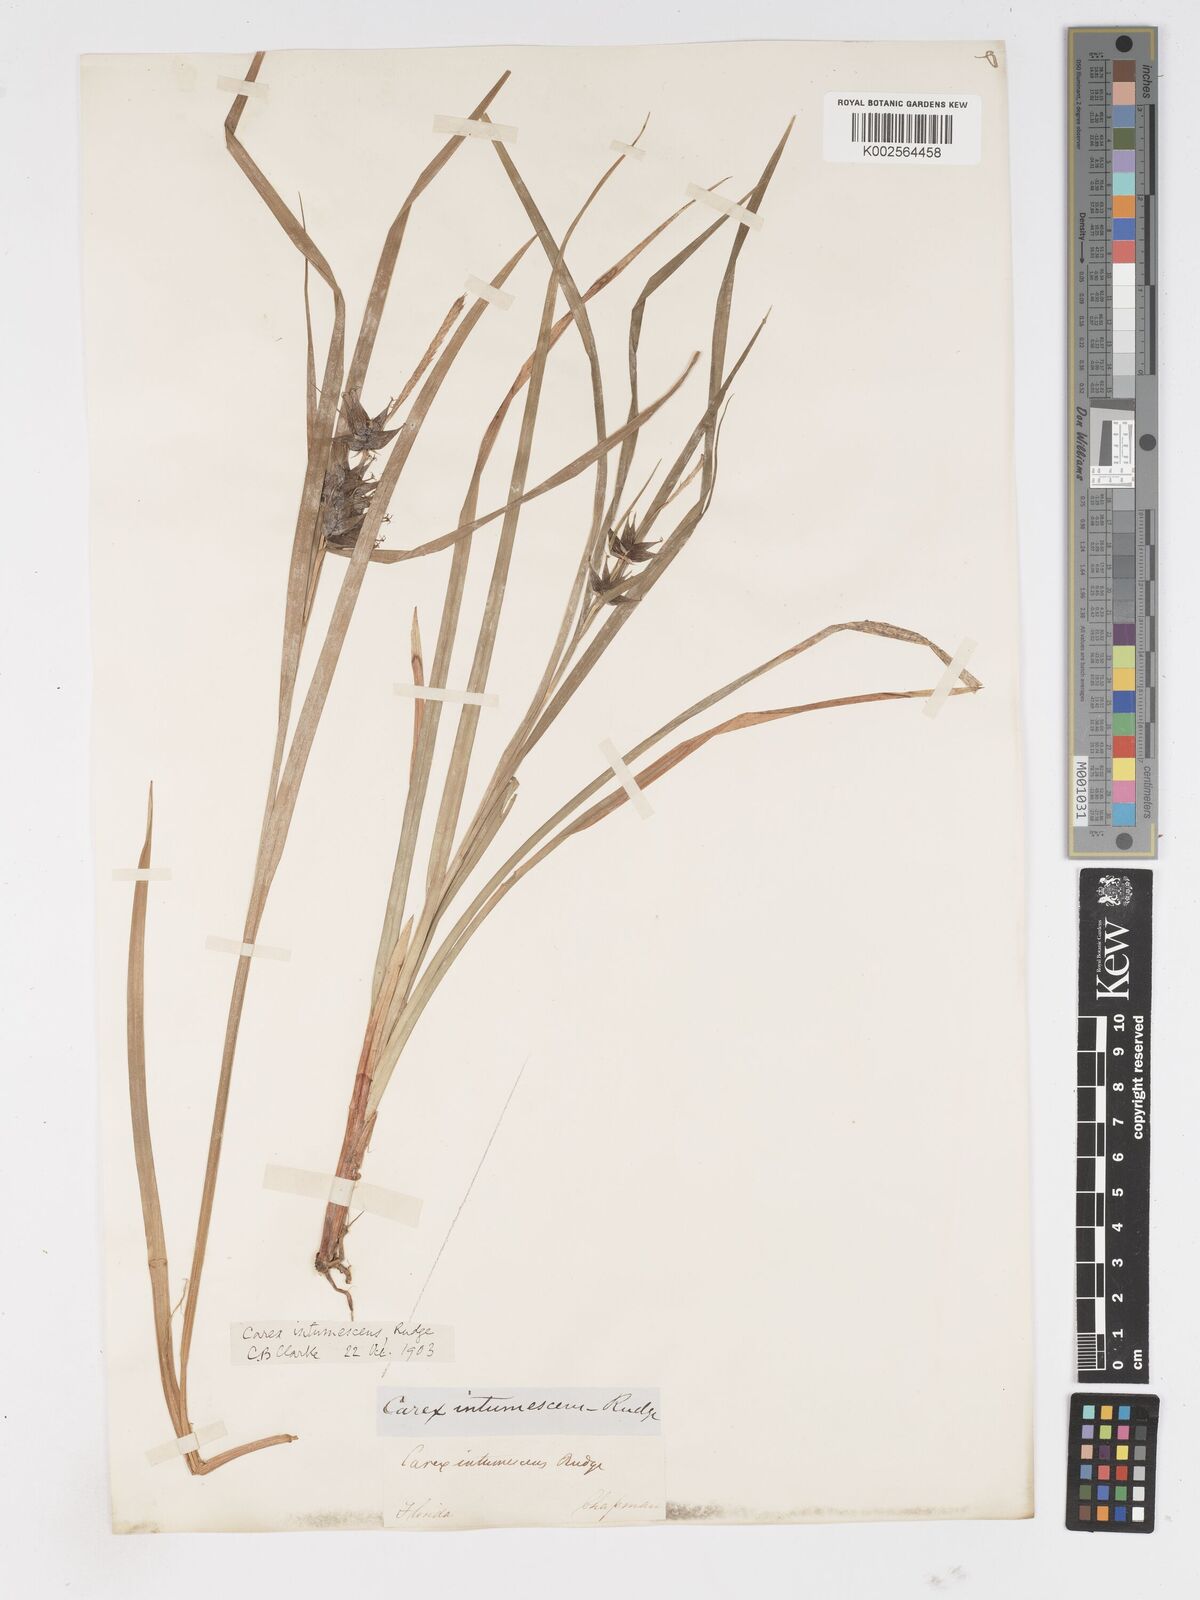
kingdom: Plantae
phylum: Tracheophyta
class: Liliopsida
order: Poales
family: Cyperaceae
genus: Carex
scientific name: Carex intumescens
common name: Greater bladder sedge
